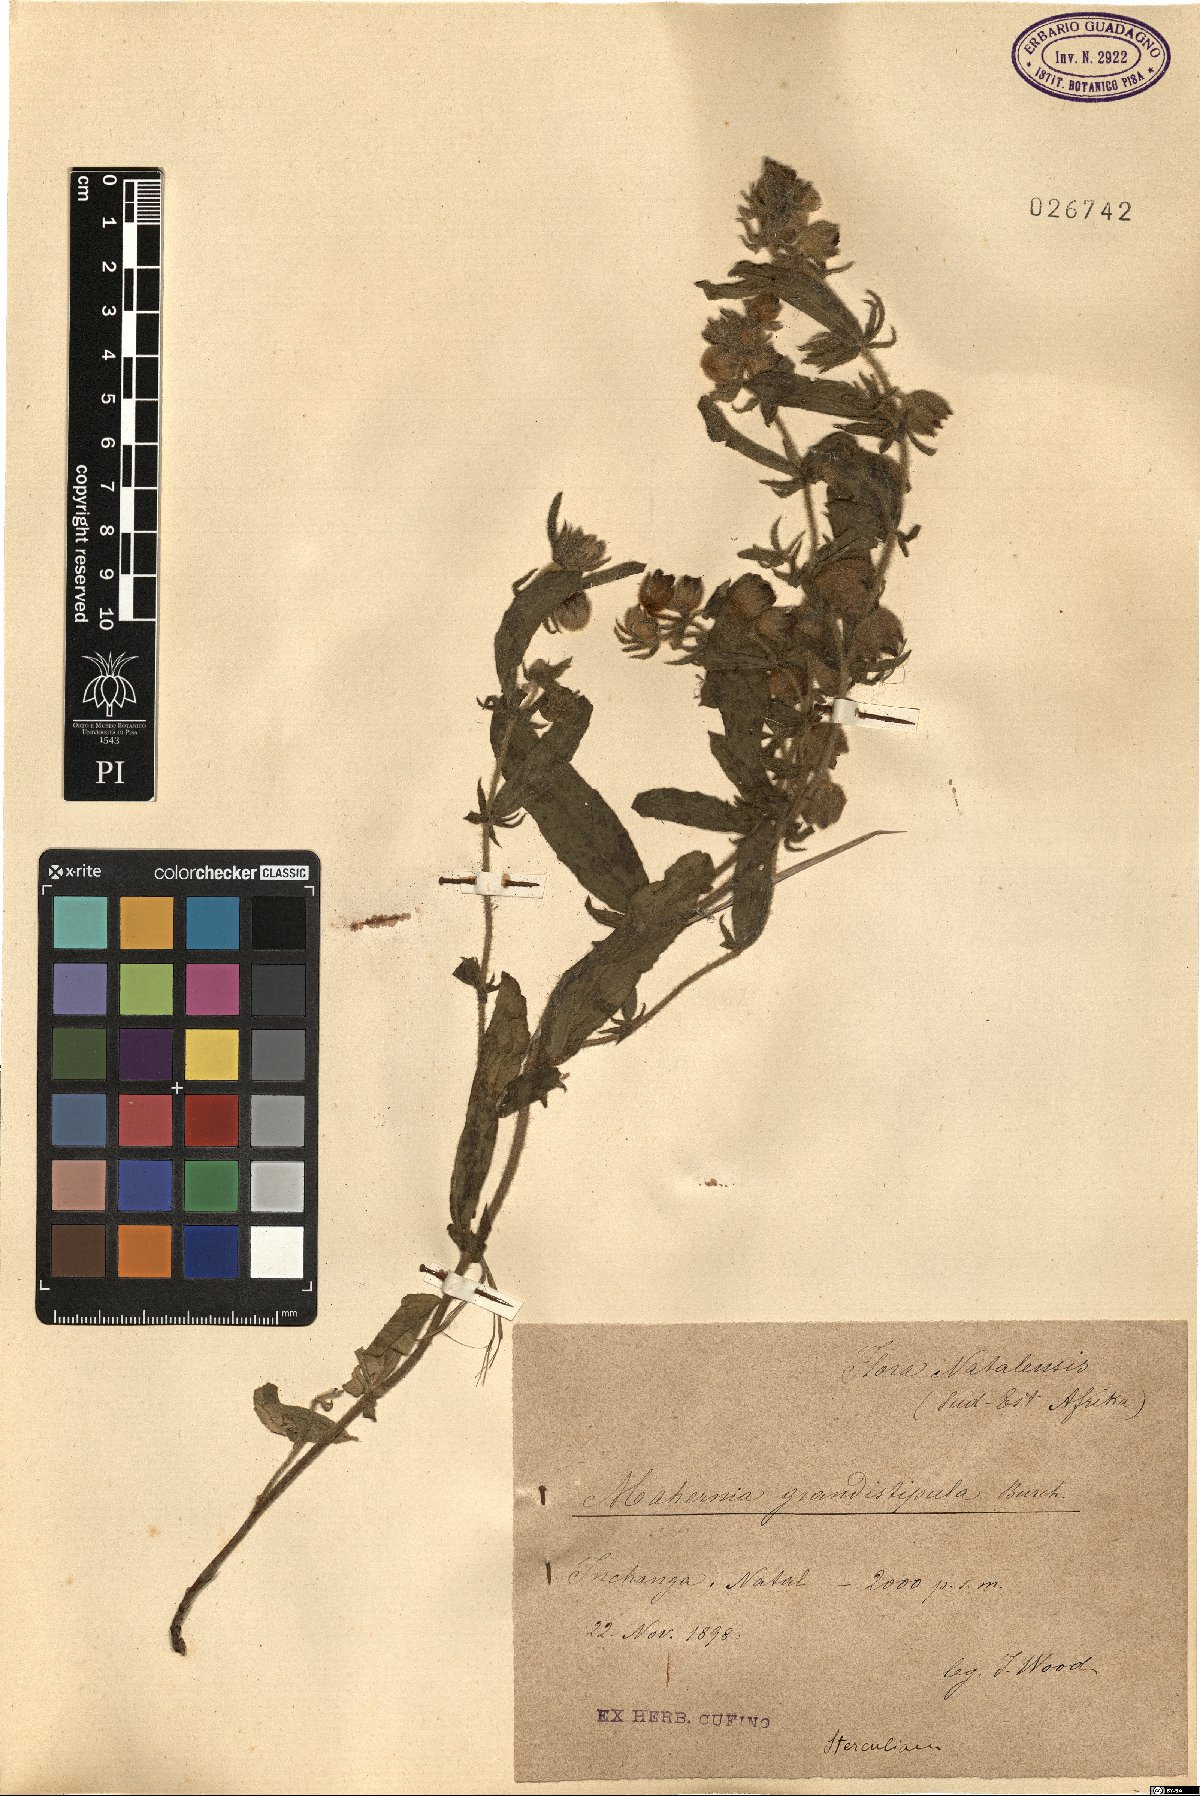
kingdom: Plantae
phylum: Tracheophyta
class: Magnoliopsida
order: Malvales
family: Malvaceae
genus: Hermannia
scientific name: Hermannia grandistipula
